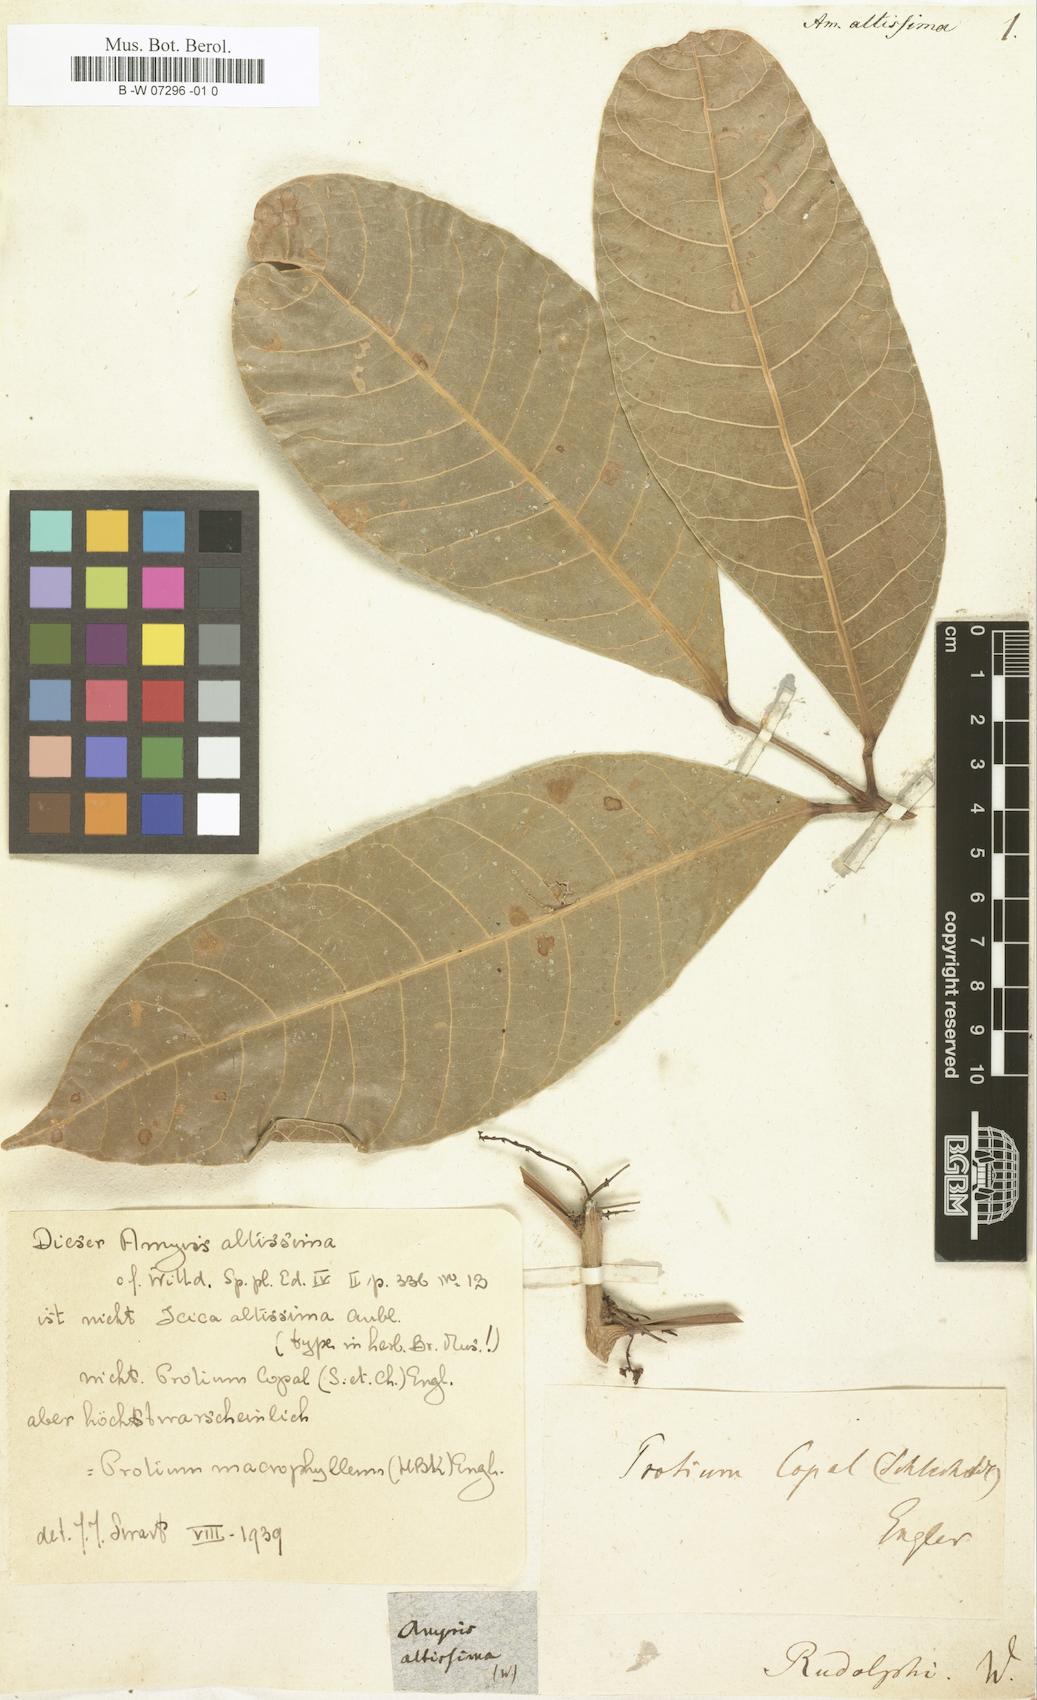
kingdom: Plantae
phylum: Tracheophyta
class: Magnoliopsida
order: Sapindales
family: Burseraceae
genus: Tetragastris
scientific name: Tetragastris altissima
